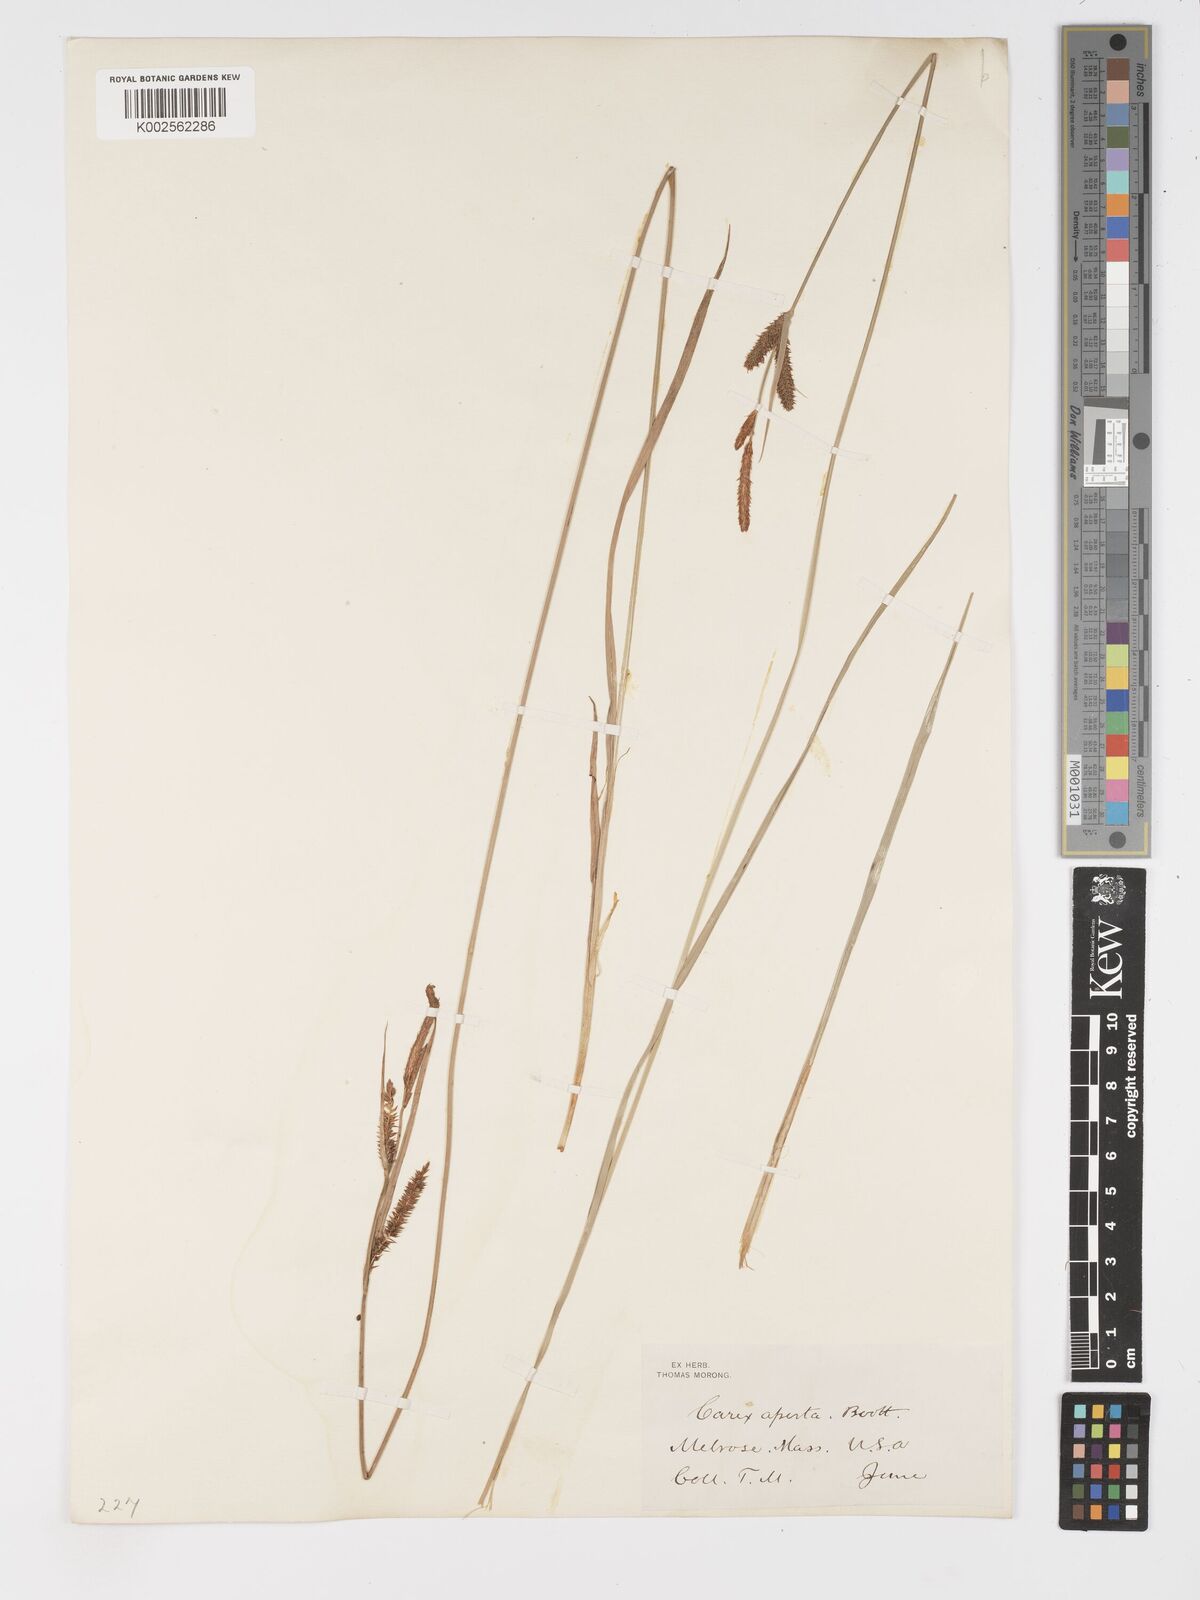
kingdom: Plantae
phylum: Tracheophyta
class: Liliopsida
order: Poales
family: Cyperaceae
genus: Carex
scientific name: Carex aperta
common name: Columbia sedge
